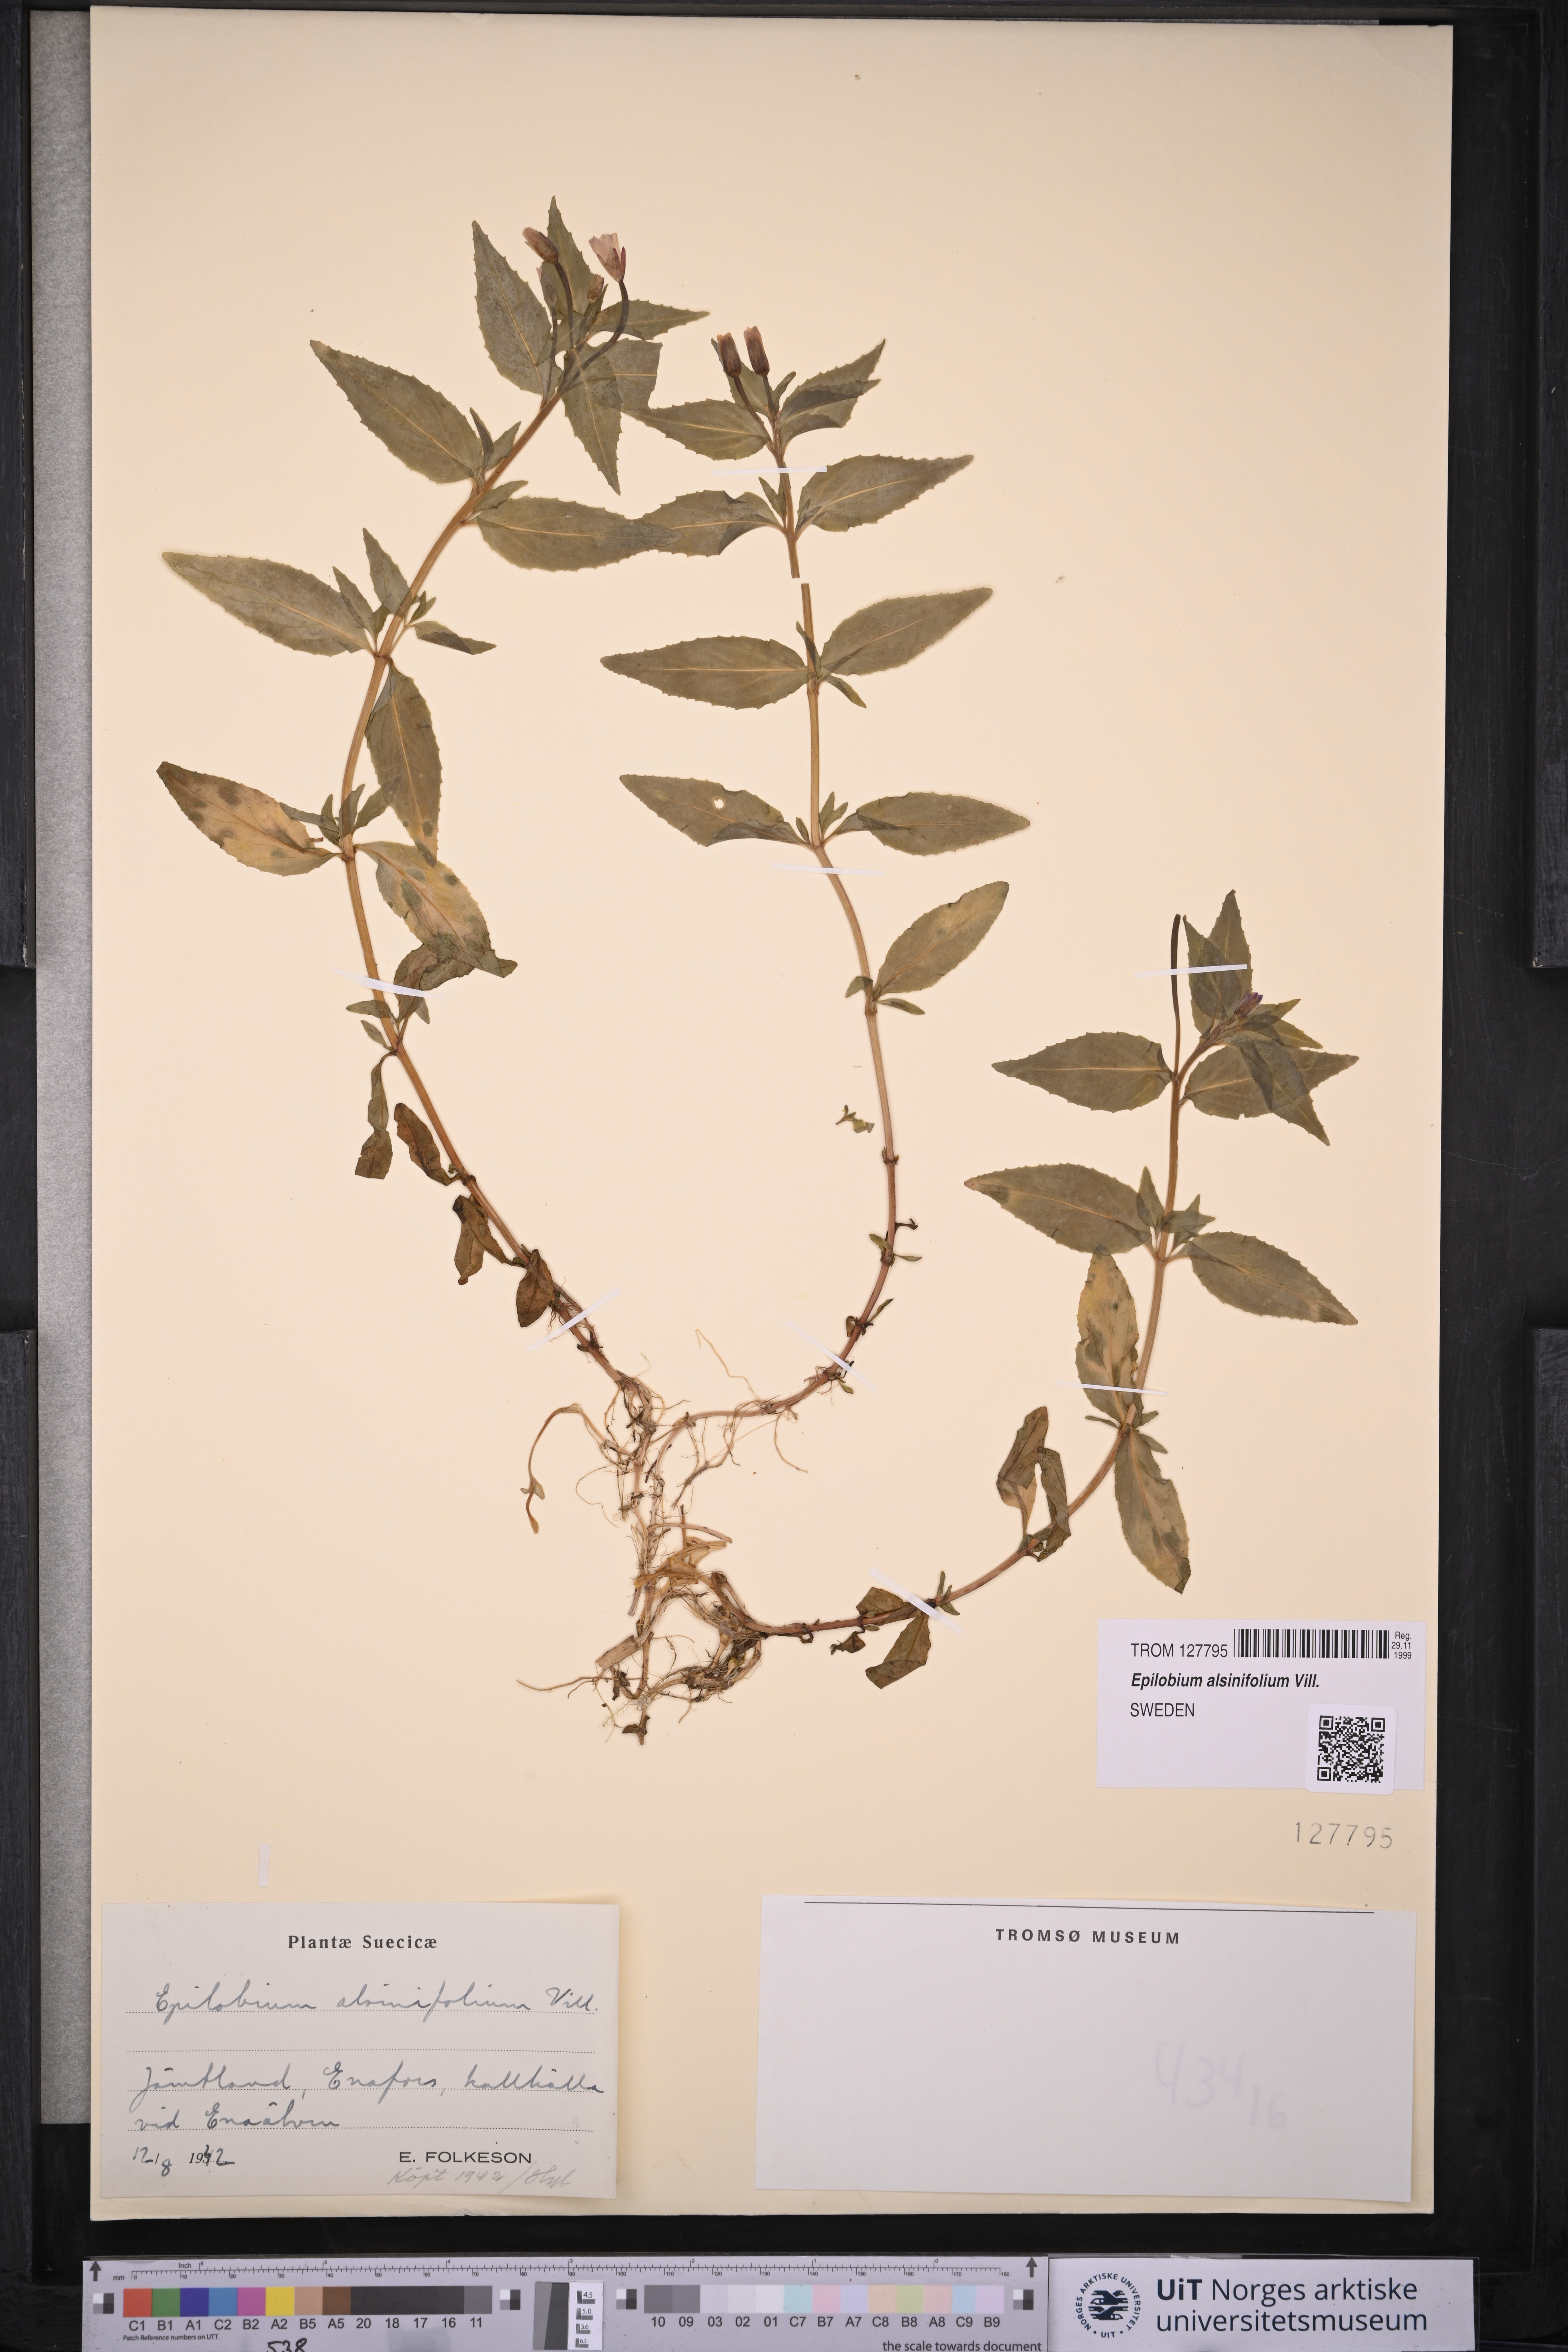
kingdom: Plantae
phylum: Tracheophyta
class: Magnoliopsida
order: Myrtales
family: Onagraceae
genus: Epilobium
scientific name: Epilobium alsinifolium
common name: Chickweed willowherb
